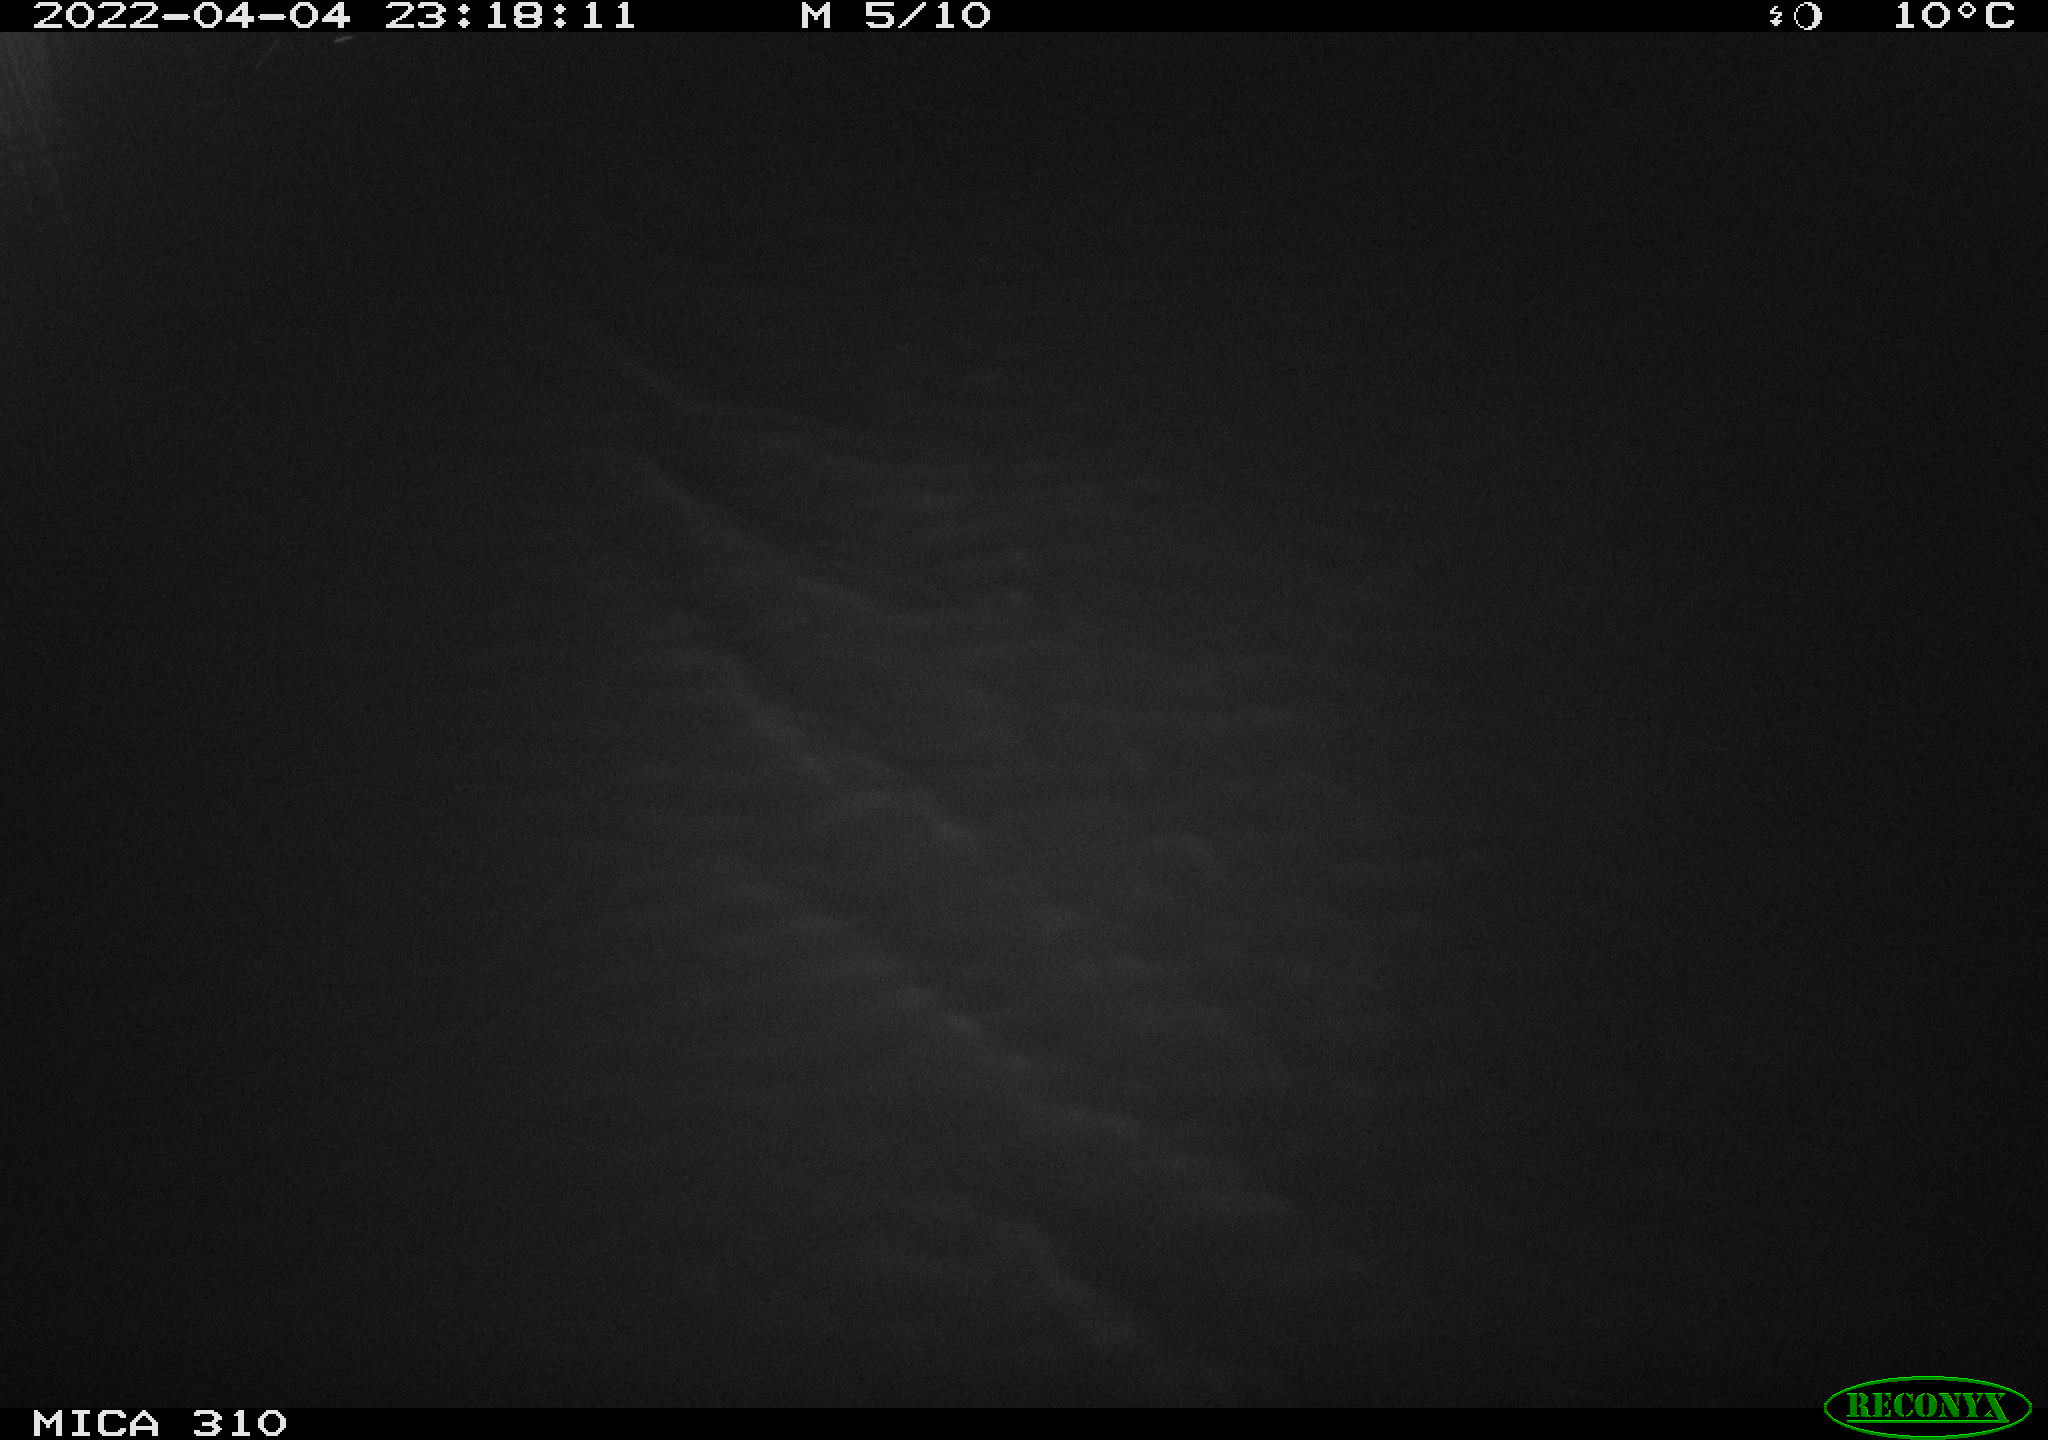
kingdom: Animalia
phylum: Chordata
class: Mammalia
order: Rodentia
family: Cricetidae
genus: Ondatra
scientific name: Ondatra zibethicus
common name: Muskrat
